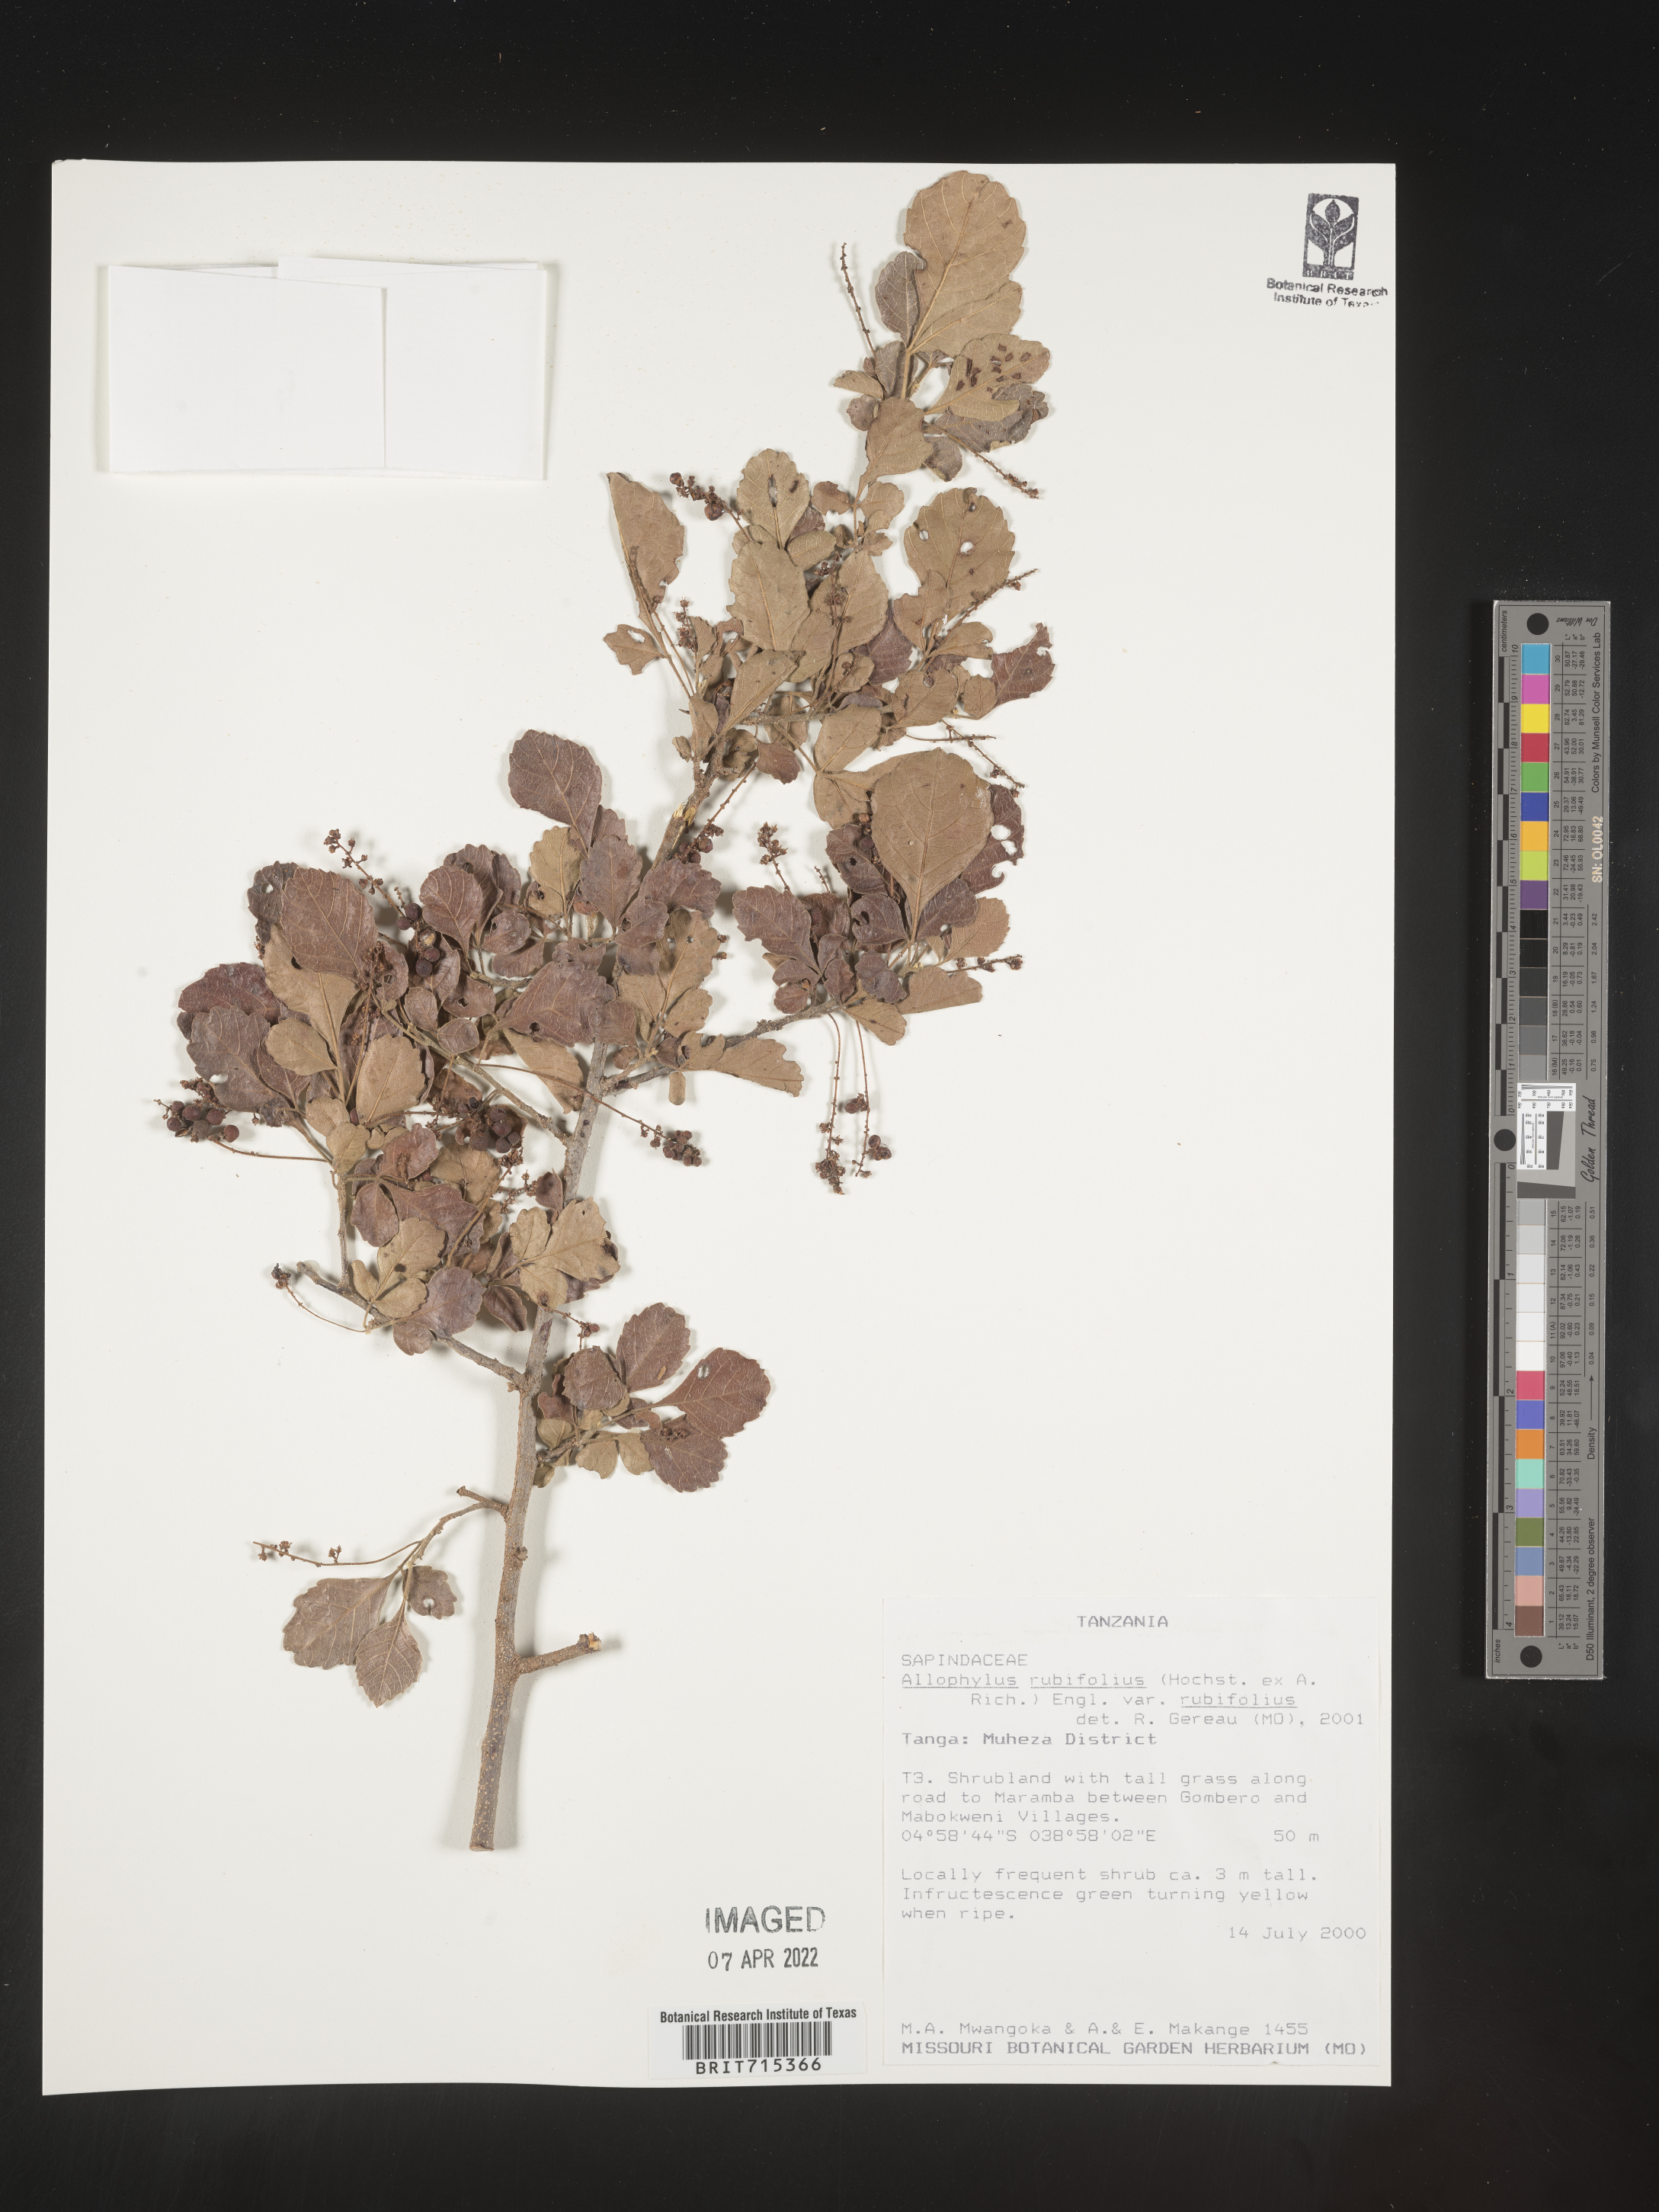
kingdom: Plantae
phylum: Tracheophyta
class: Magnoliopsida
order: Sapindales
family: Sapindaceae
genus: Allophylus
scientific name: Allophylus rubifolius
